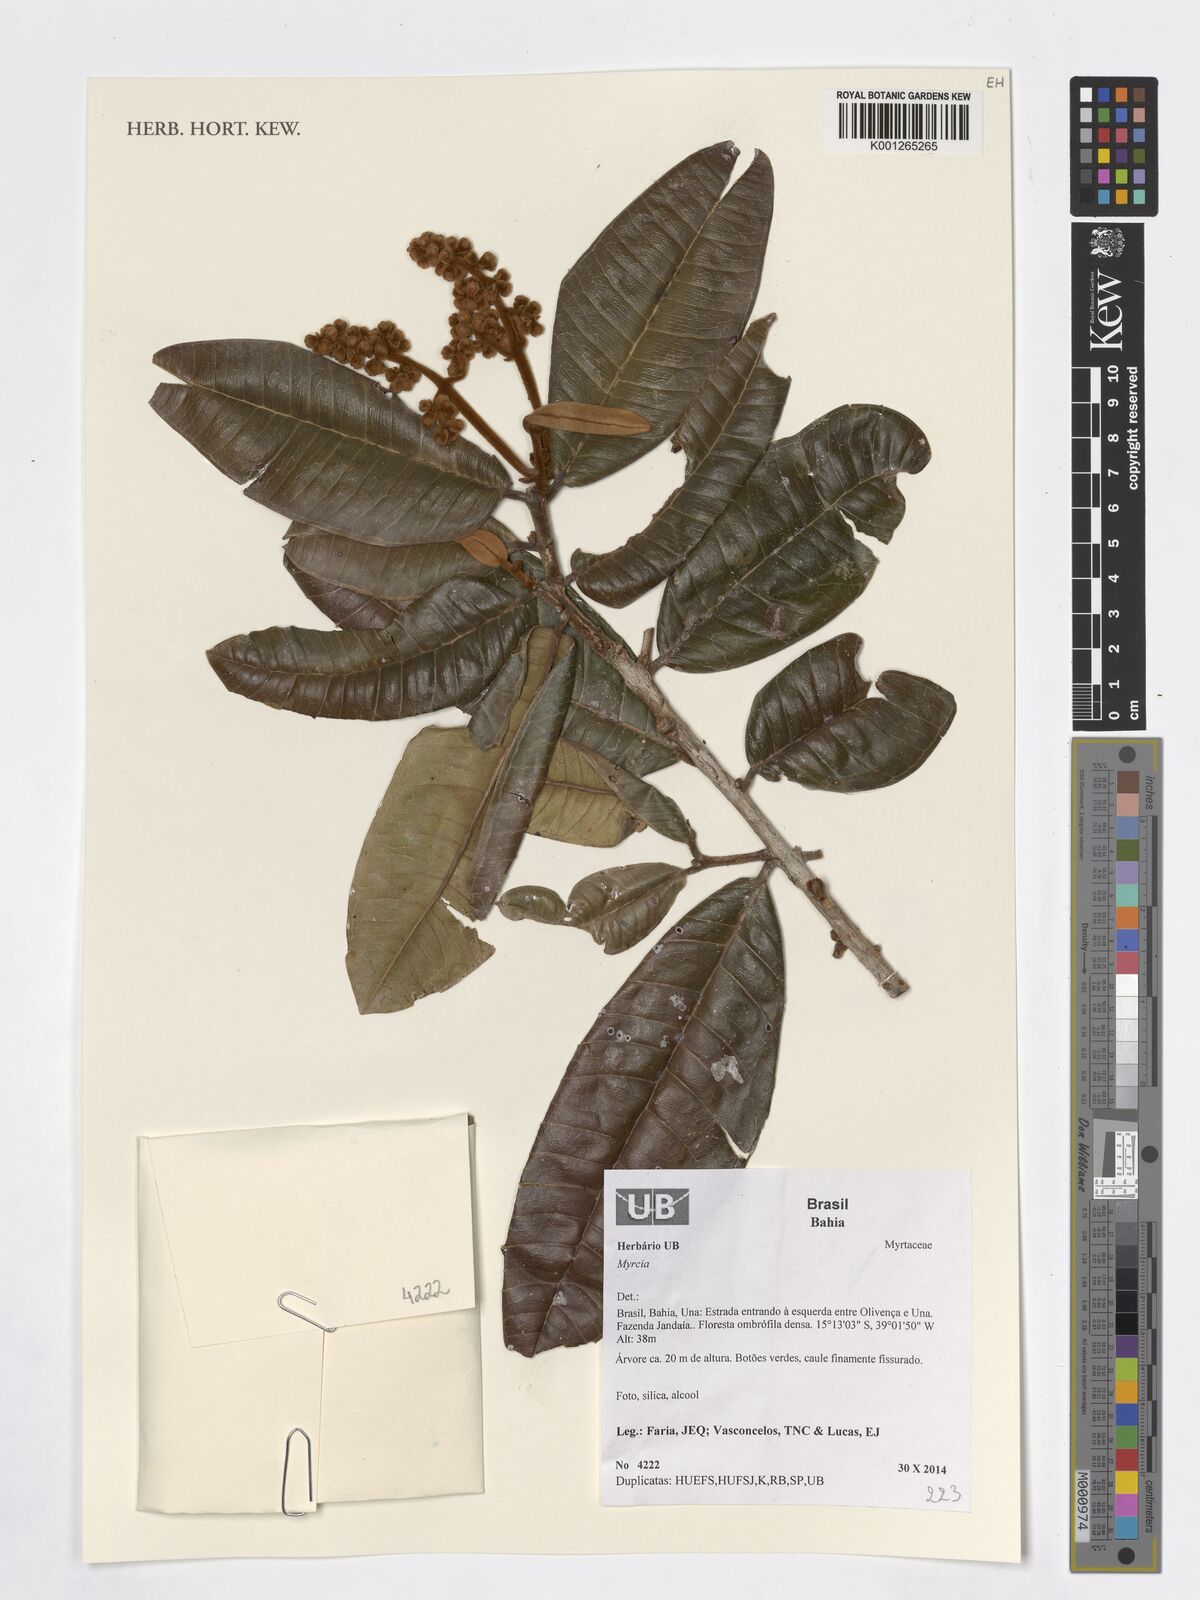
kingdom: Plantae
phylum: Tracheophyta
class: Magnoliopsida
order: Myrtales
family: Myrtaceae
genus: Myrcia
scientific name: Myrcia
